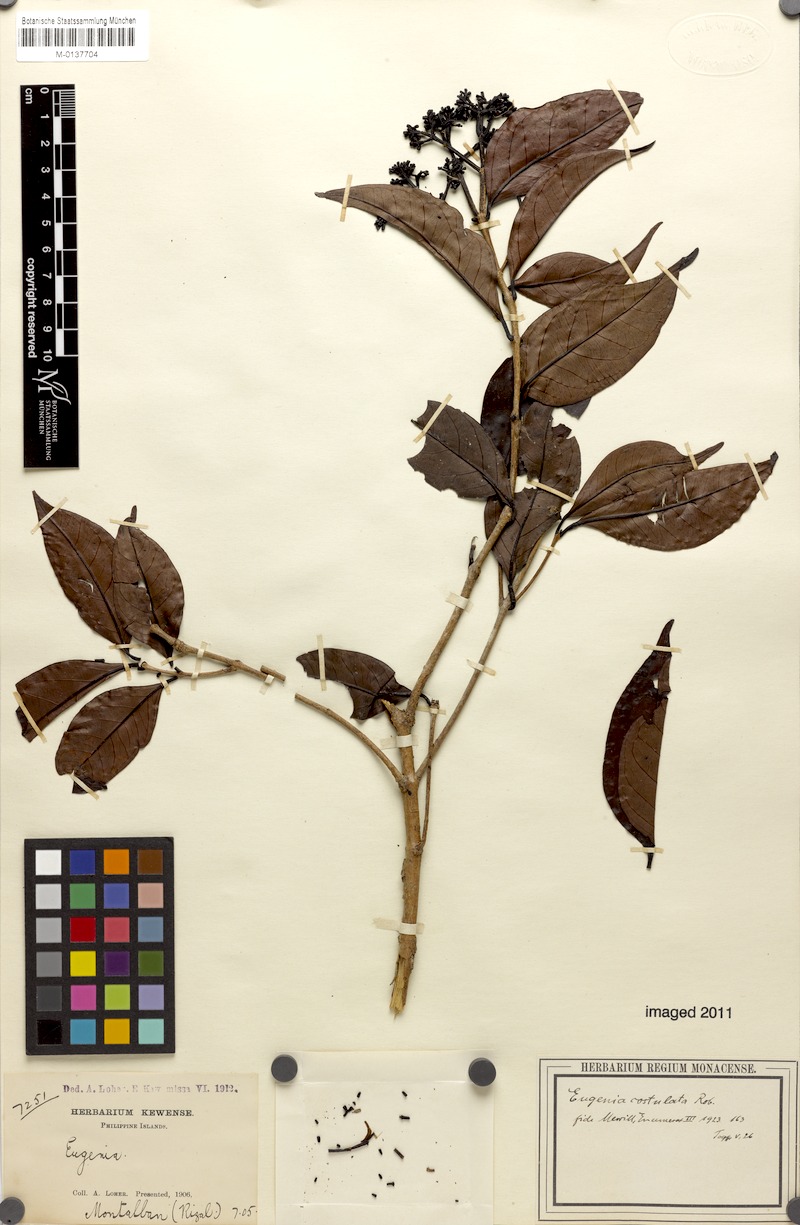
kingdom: Plantae
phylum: Tracheophyta
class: Magnoliopsida
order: Myrtales
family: Myrtaceae
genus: Syzygium
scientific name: Syzygium costulatum
